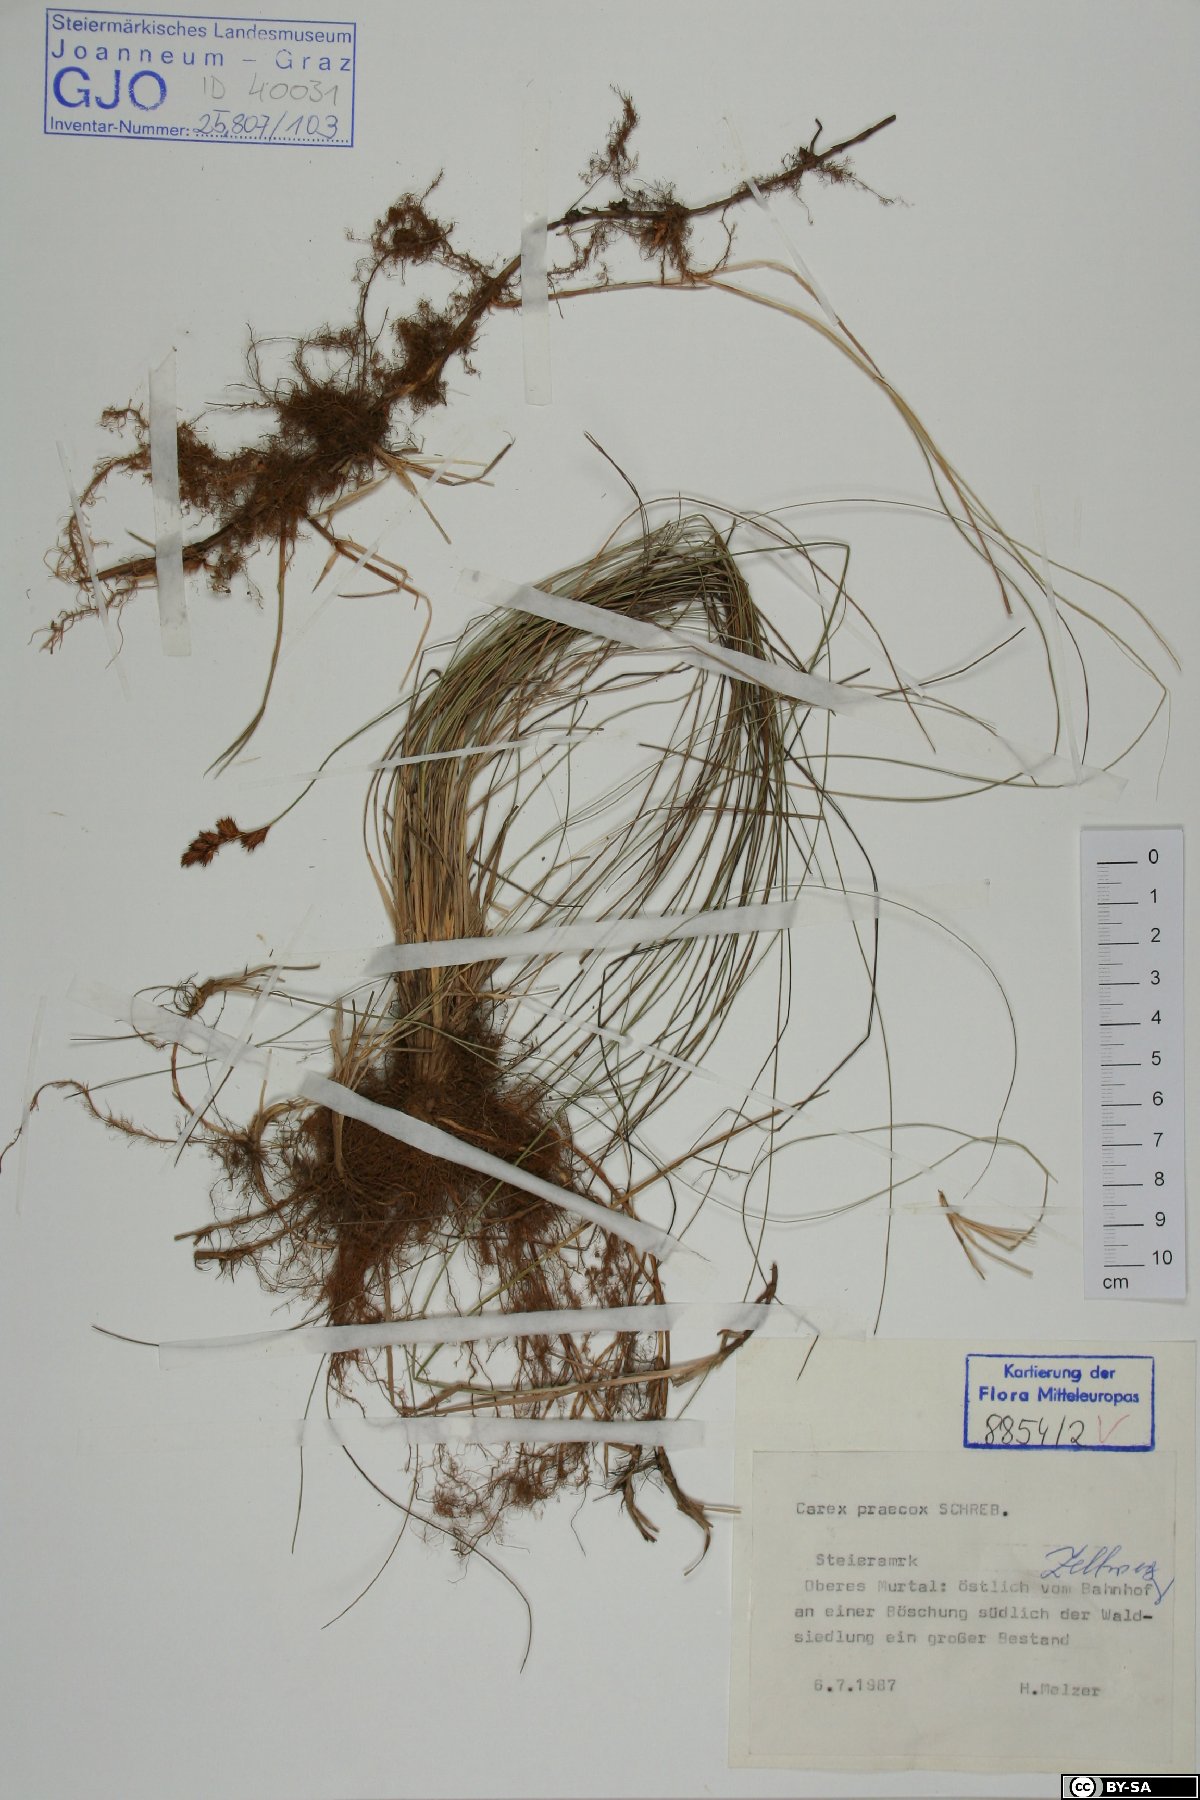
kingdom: Plantae
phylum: Tracheophyta
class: Liliopsida
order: Poales
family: Cyperaceae
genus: Carex
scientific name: Carex praecox
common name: Early sedge
